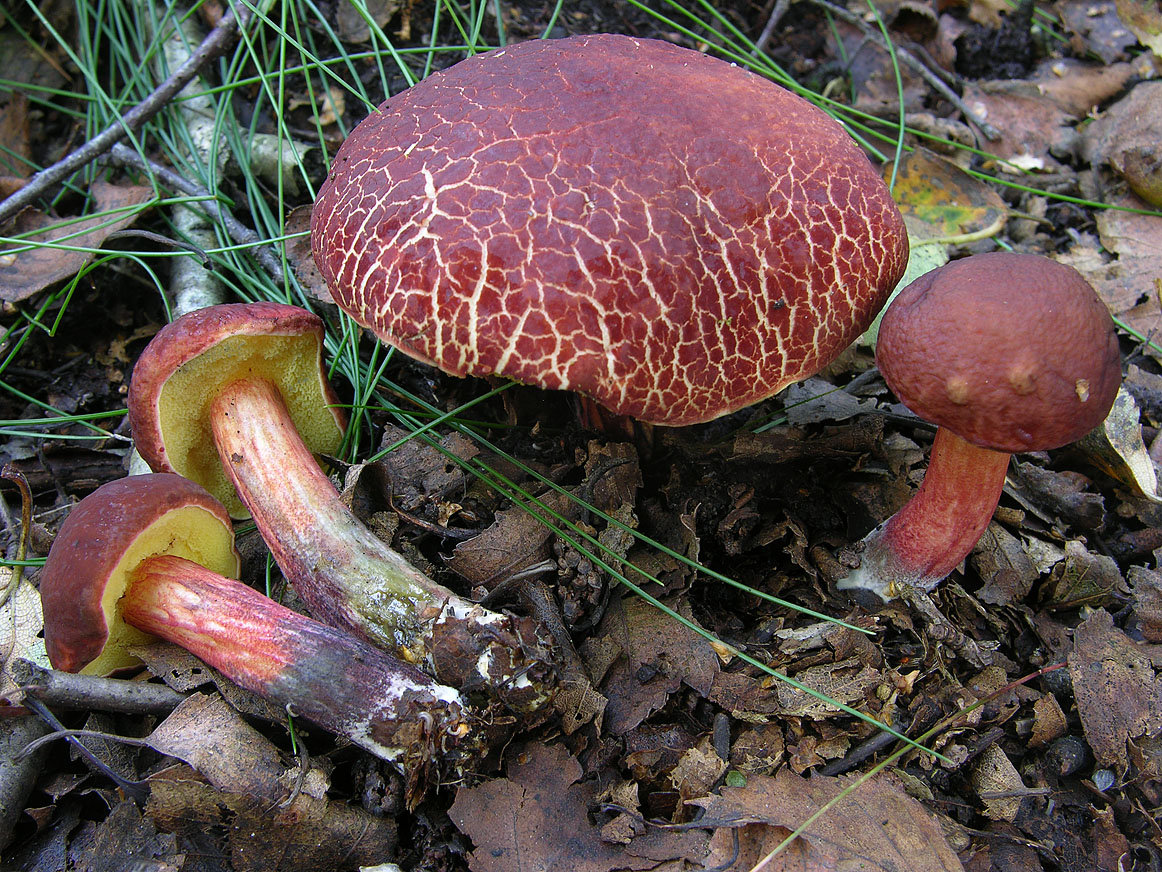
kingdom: Fungi
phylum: Basidiomycota
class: Agaricomycetes
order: Boletales
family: Boletaceae
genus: Xerocomellus
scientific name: Xerocomellus ripariellus
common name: sump-rørhat
